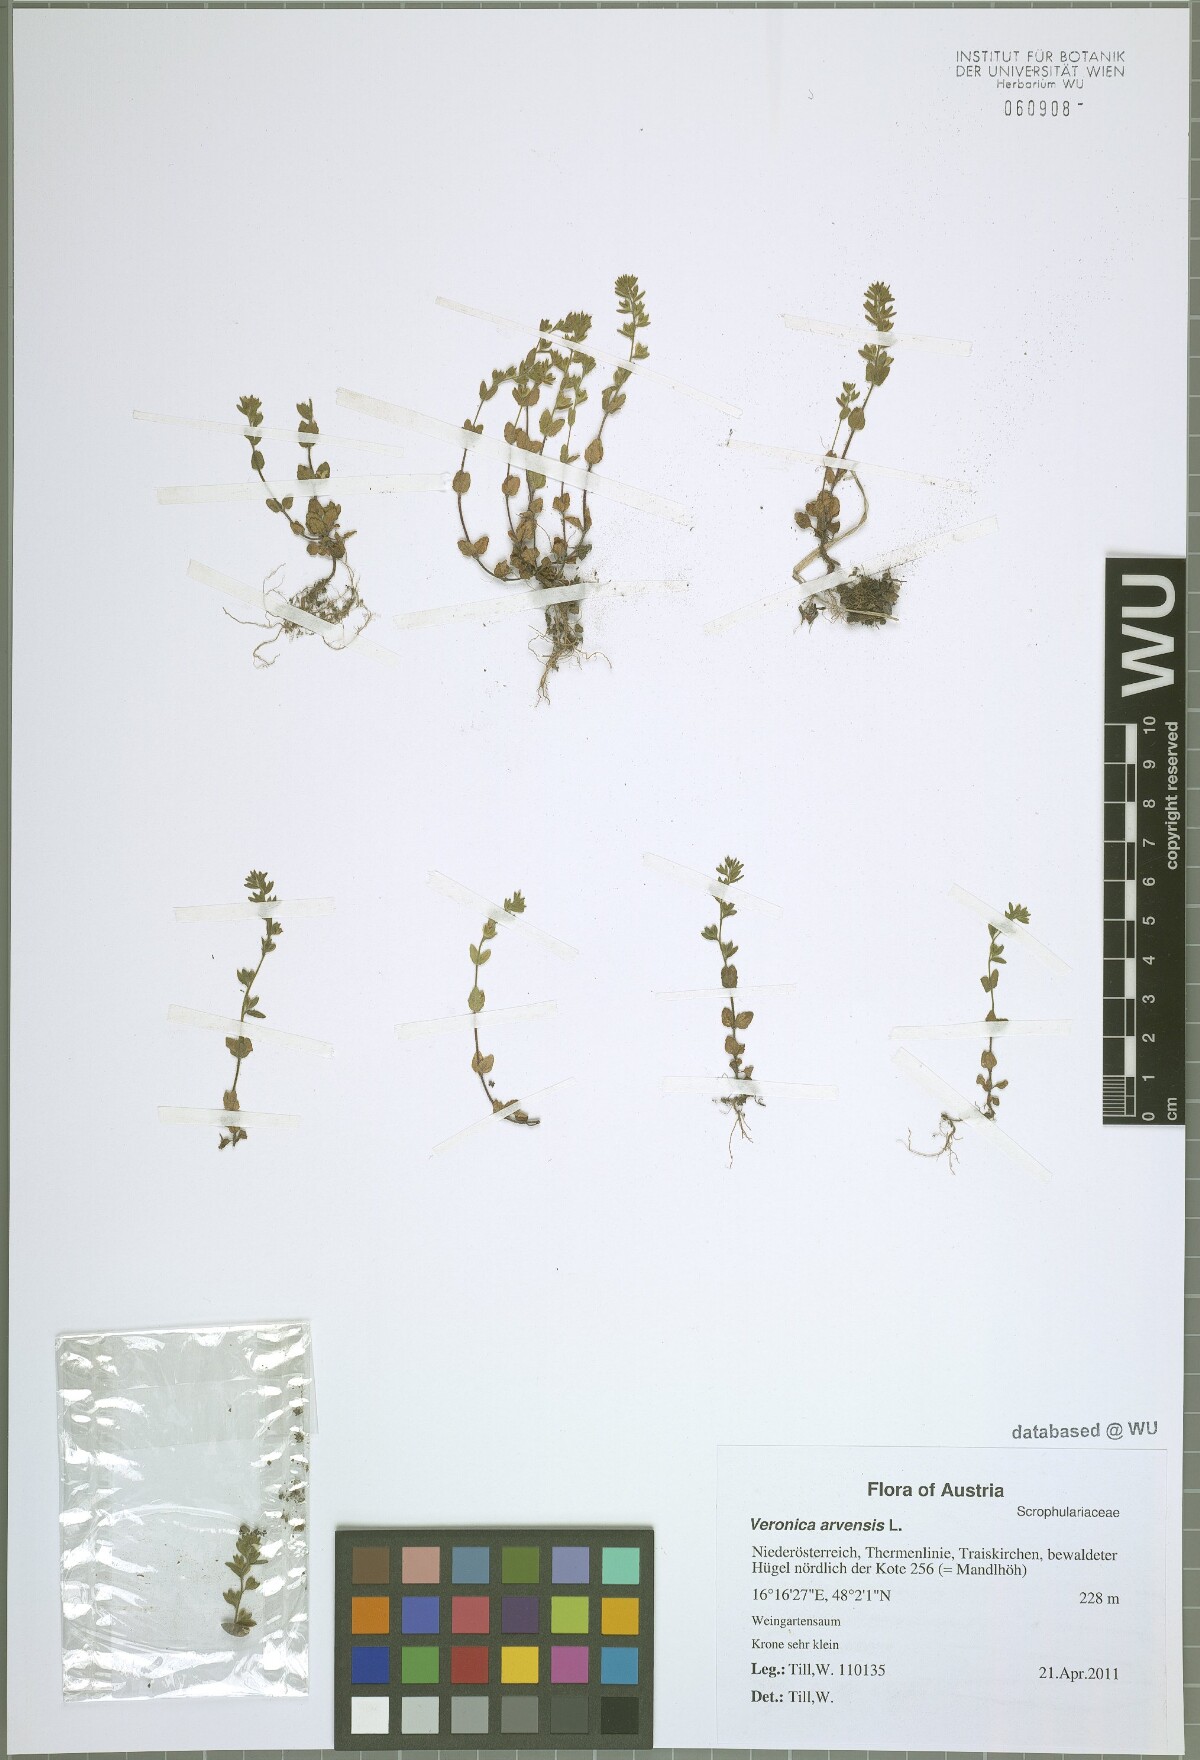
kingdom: Plantae
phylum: Tracheophyta
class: Magnoliopsida
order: Lamiales
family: Plantaginaceae
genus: Veronica
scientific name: Veronica arvensis
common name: Corn speedwell
